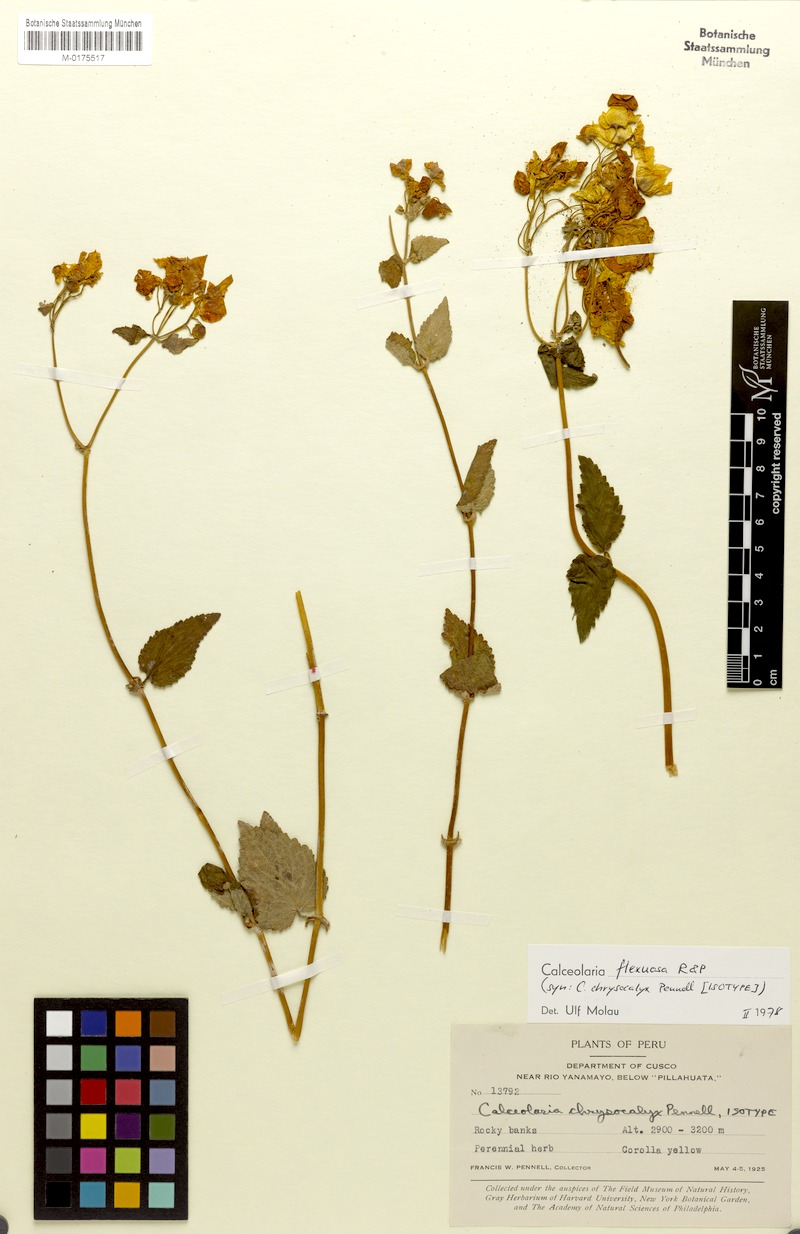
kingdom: Plantae
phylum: Tracheophyta
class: Magnoliopsida
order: Lamiales
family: Calceolariaceae
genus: Calceolaria
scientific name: Calceolaria flexuosa
